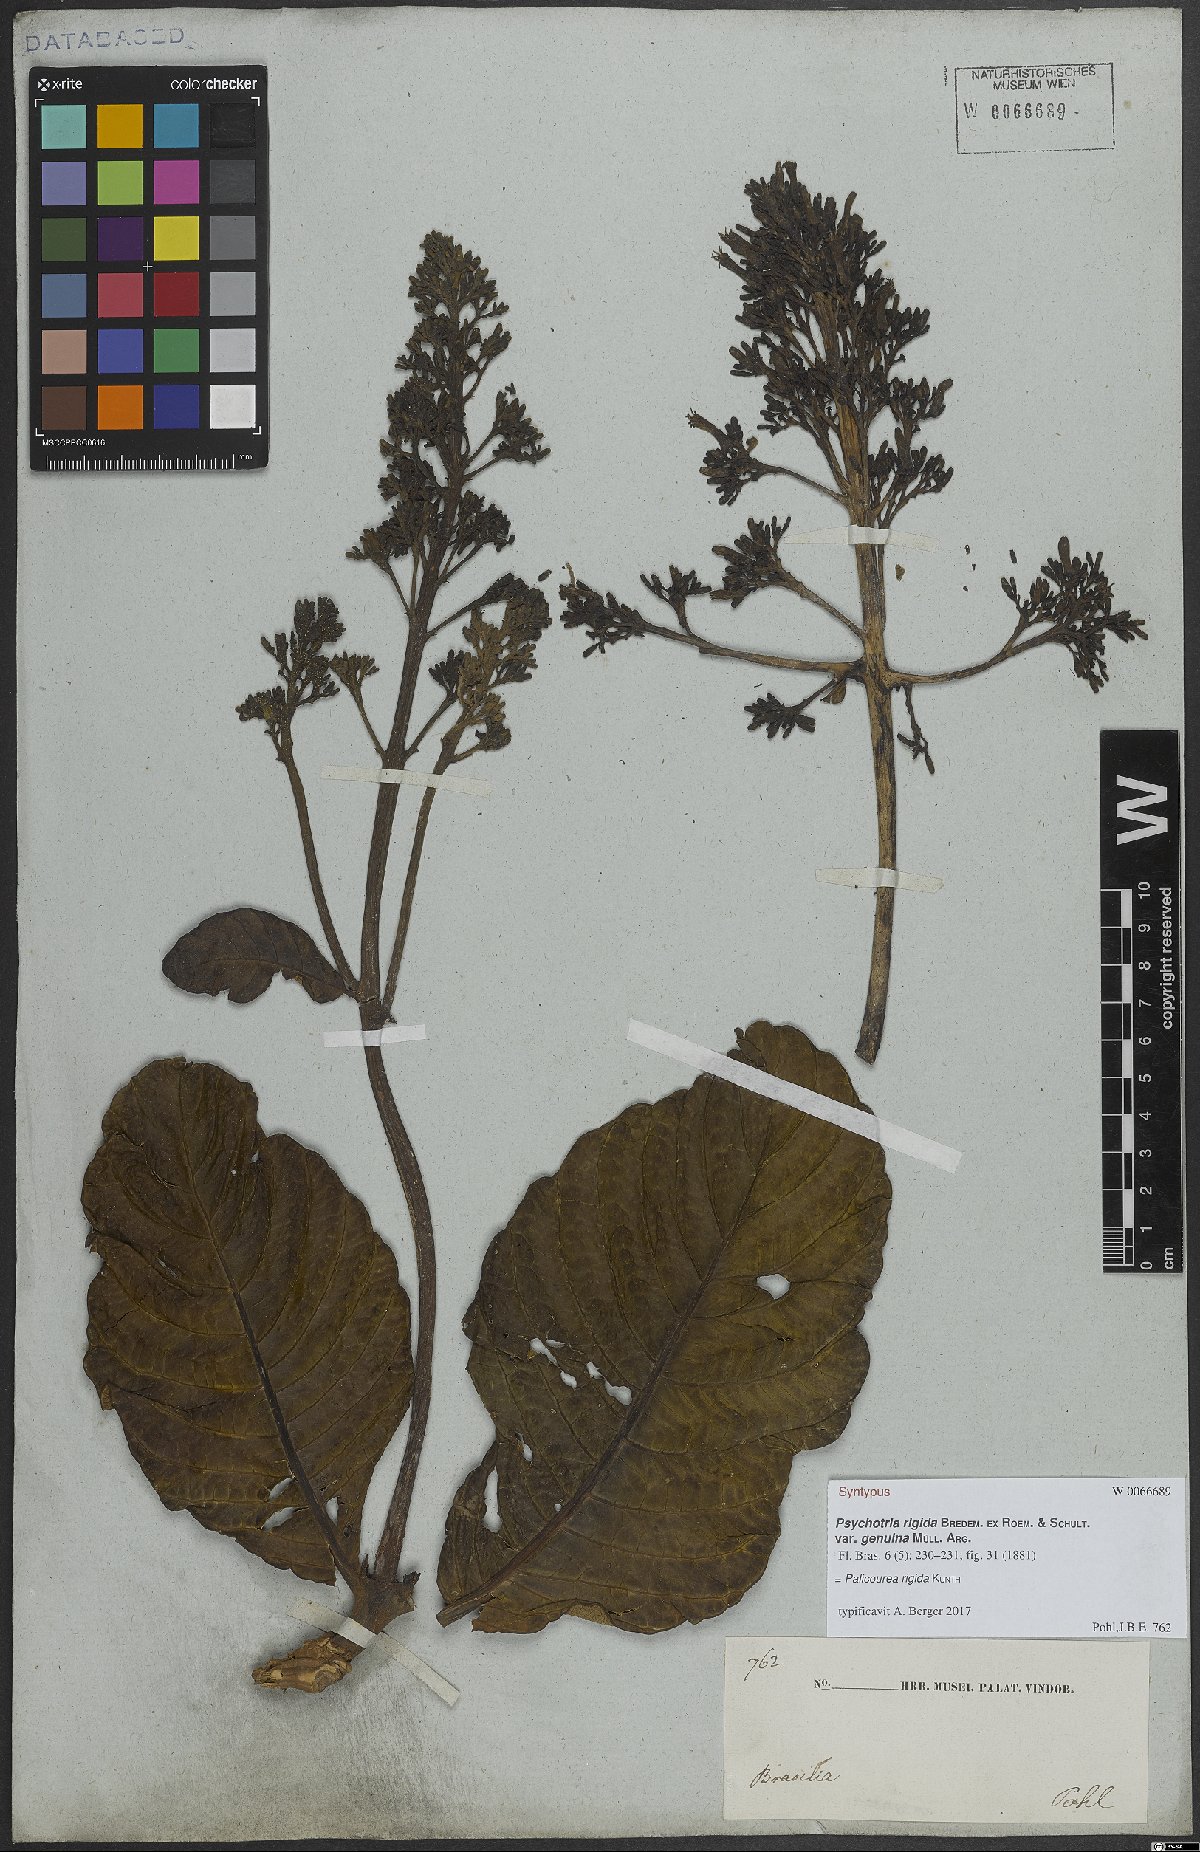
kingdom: Plantae
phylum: Tracheophyta
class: Magnoliopsida
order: Gentianales
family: Rubiaceae
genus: Palicourea
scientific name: Palicourea rigida
